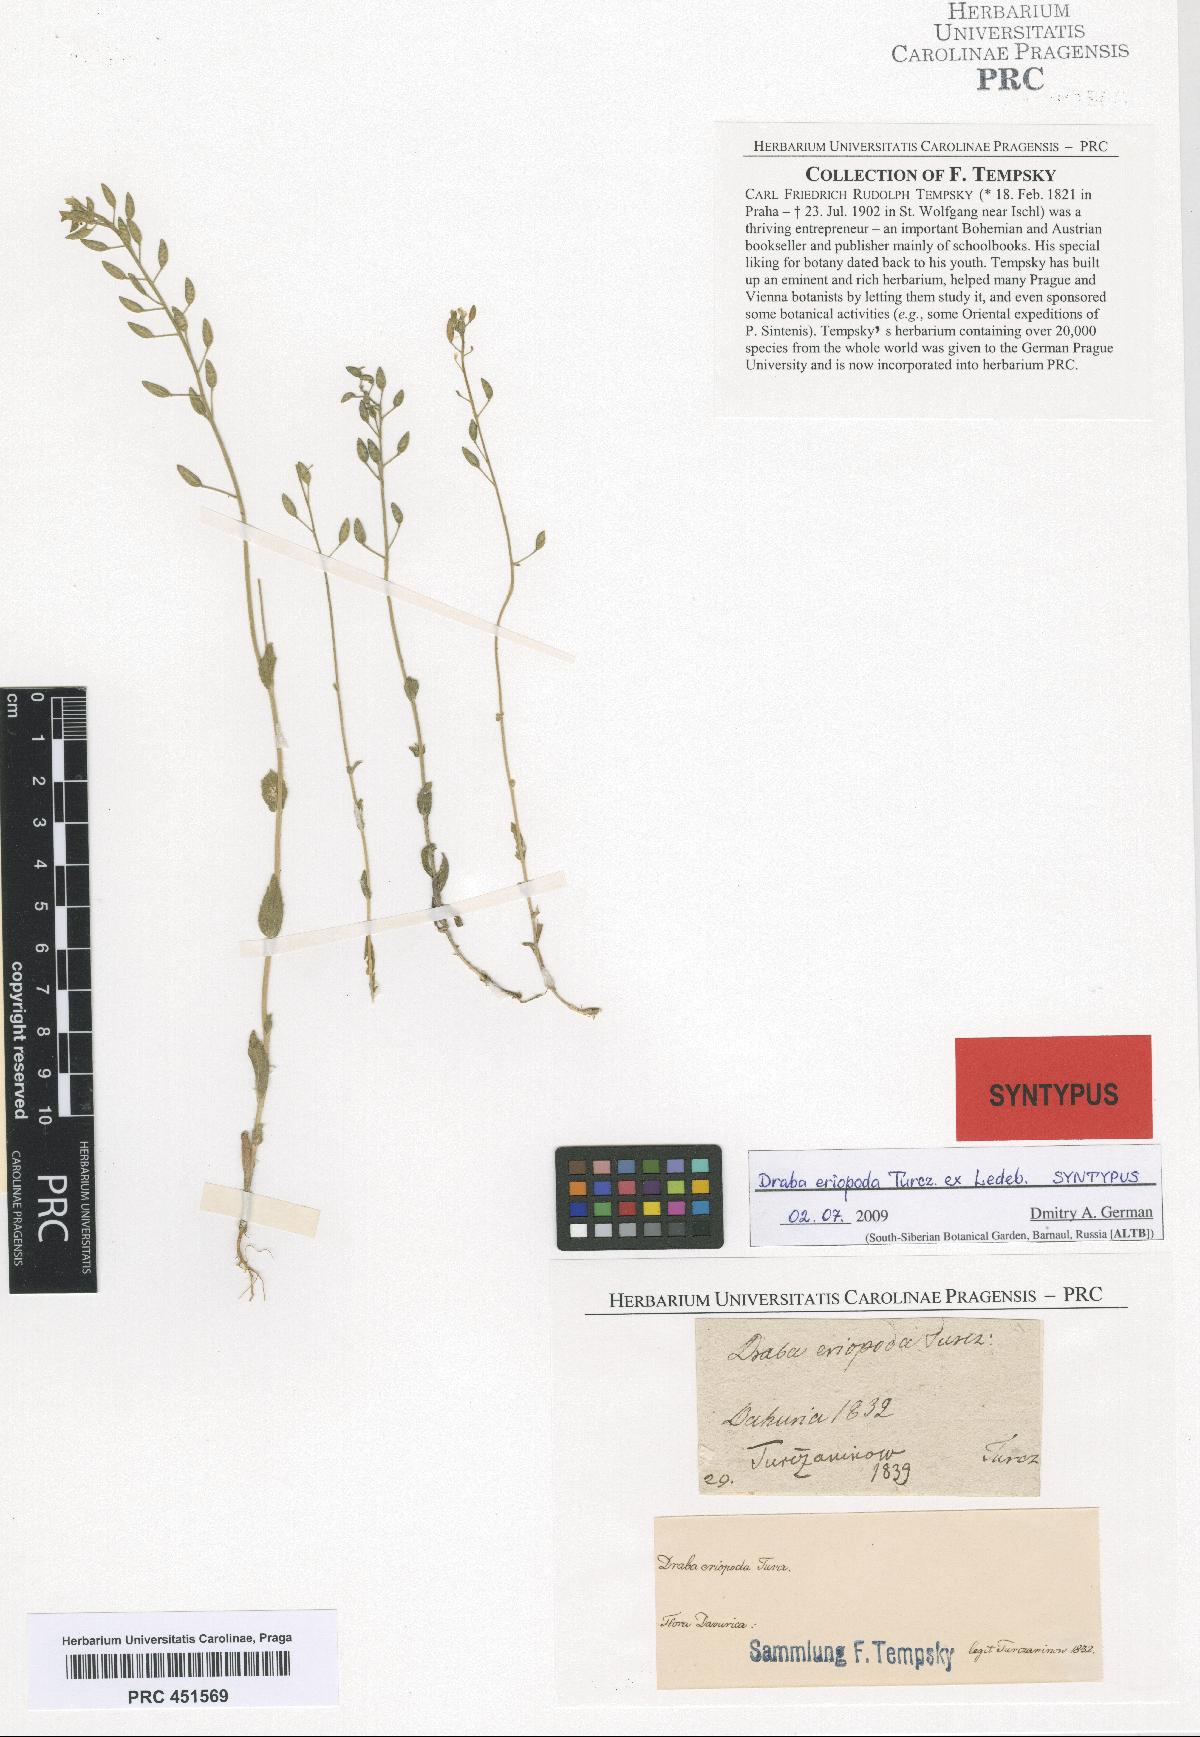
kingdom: Plantae
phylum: Tracheophyta
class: Magnoliopsida
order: Brassicales
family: Brassicaceae
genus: Draba
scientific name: Draba eriopoda
